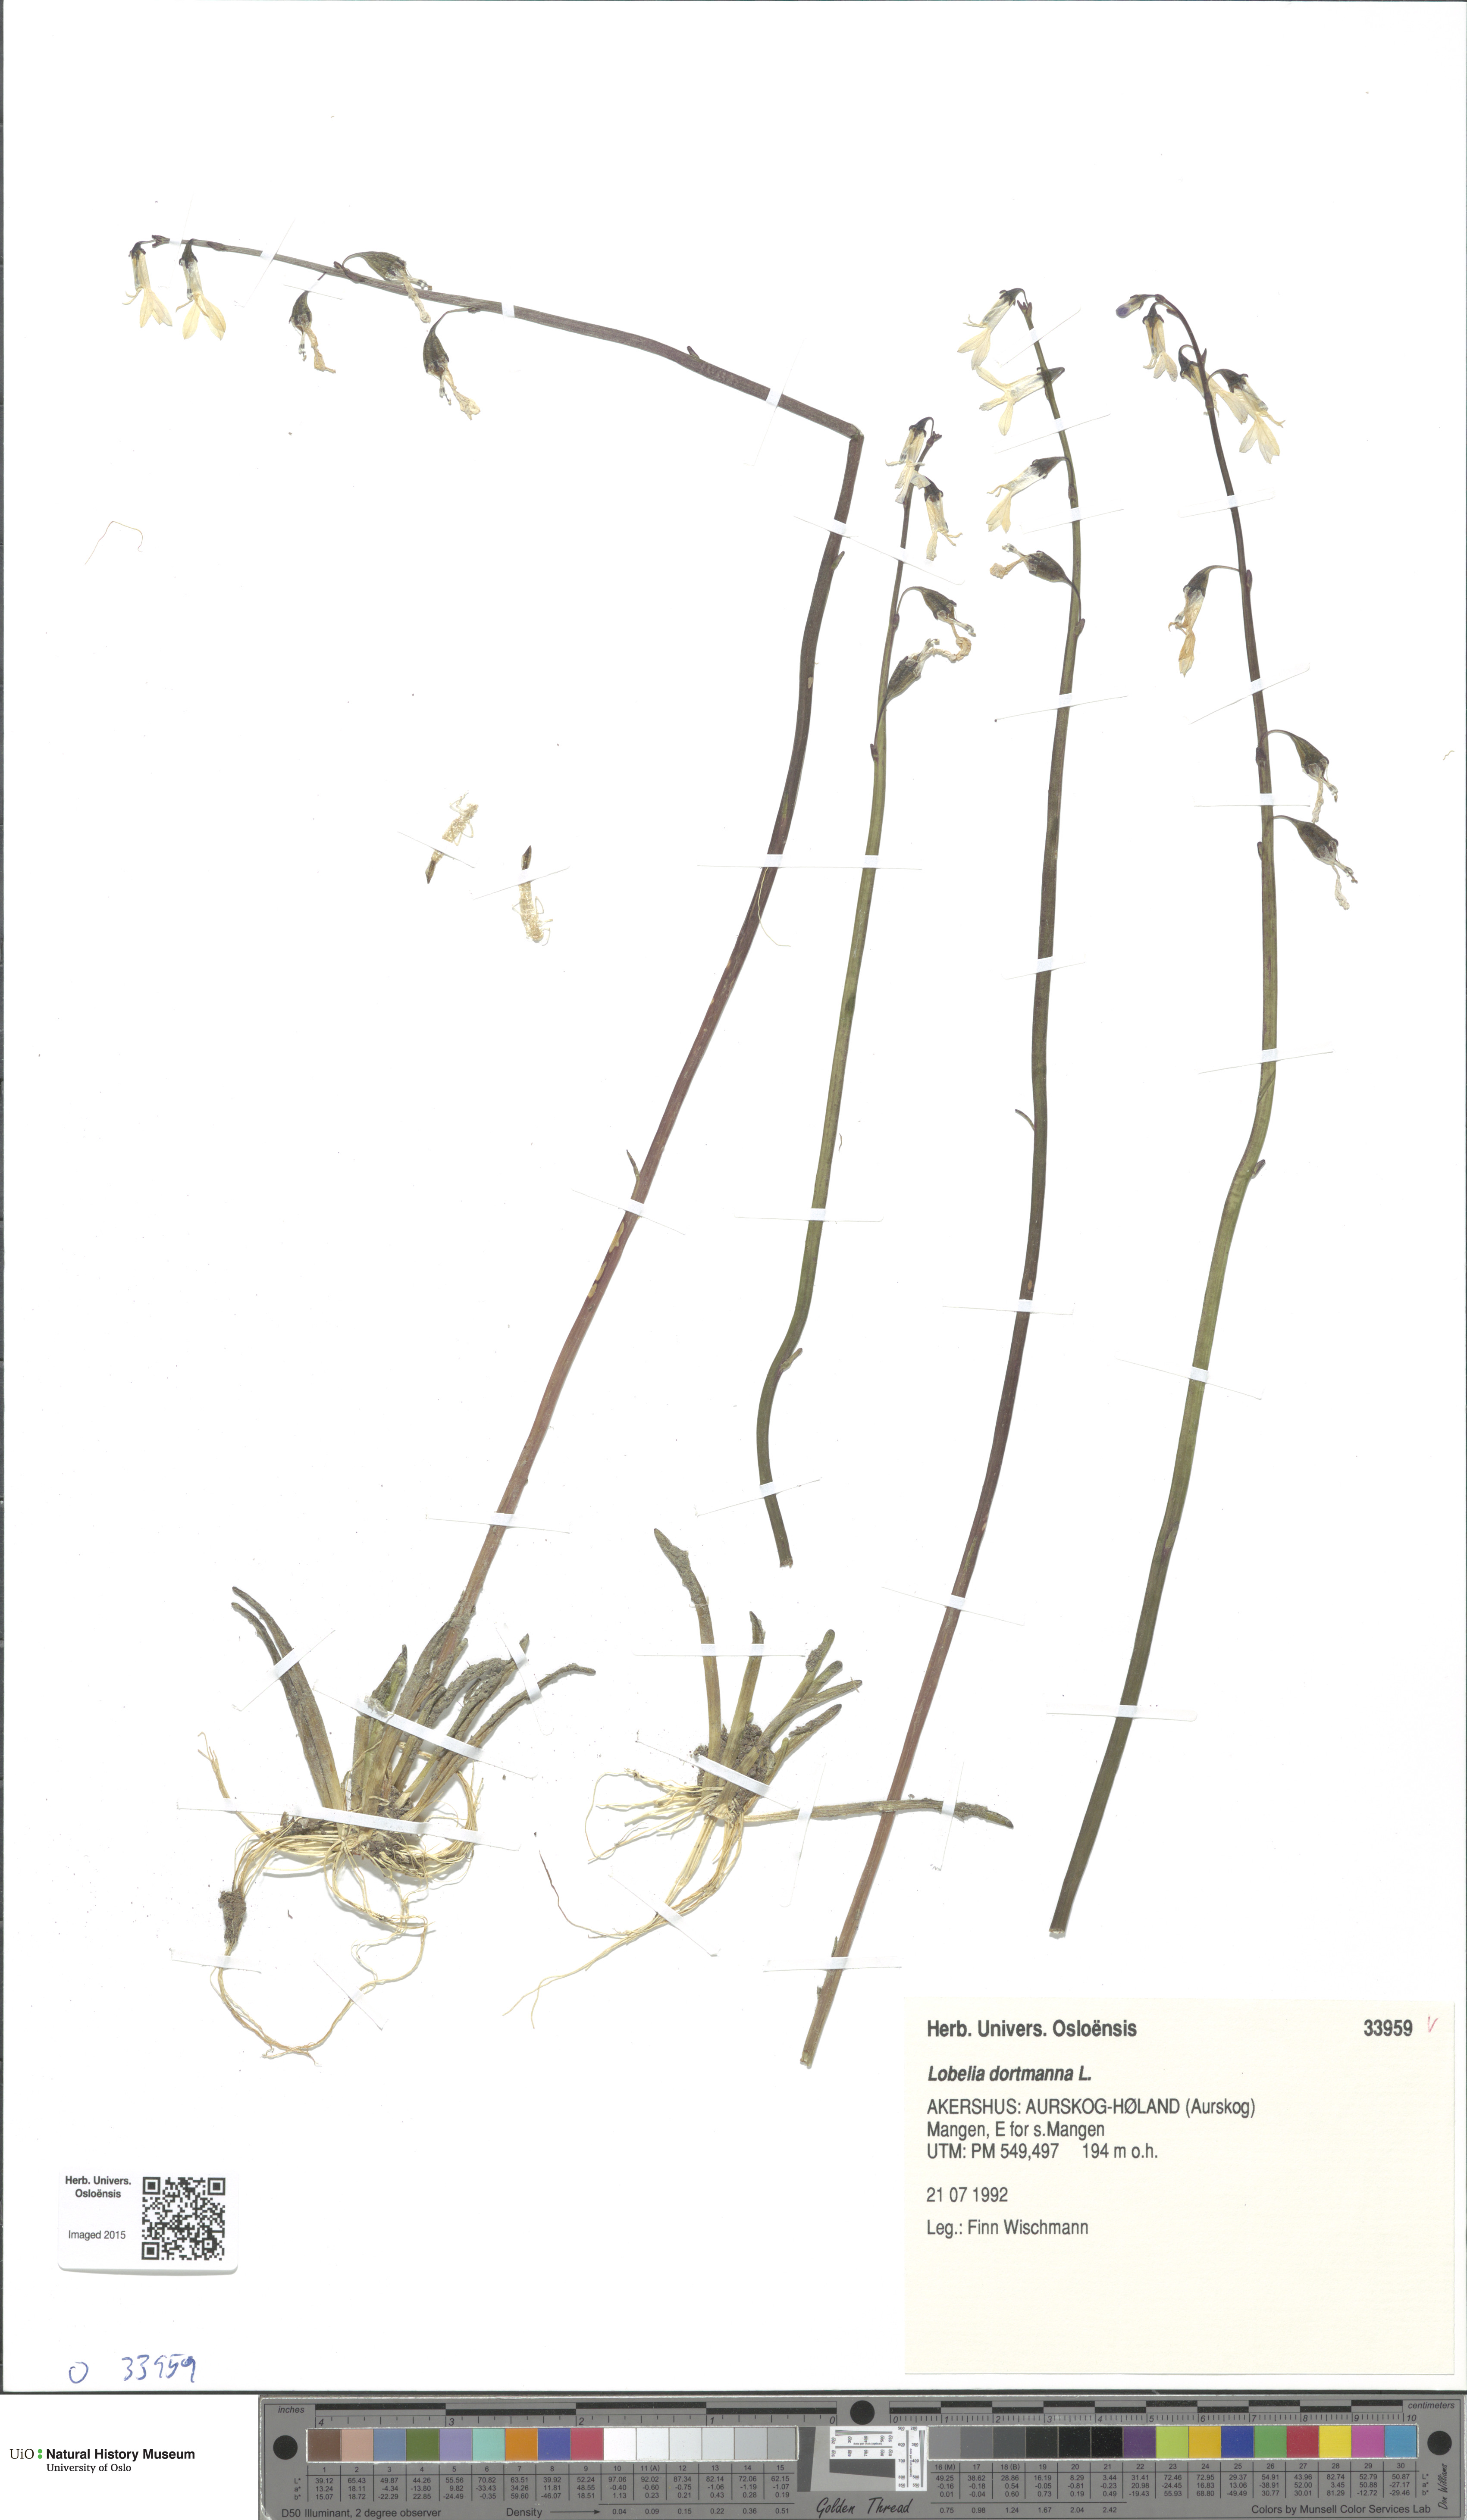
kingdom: Plantae
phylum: Tracheophyta
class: Magnoliopsida
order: Asterales
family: Campanulaceae
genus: Lobelia
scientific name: Lobelia dortmanna
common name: Water lobelia
